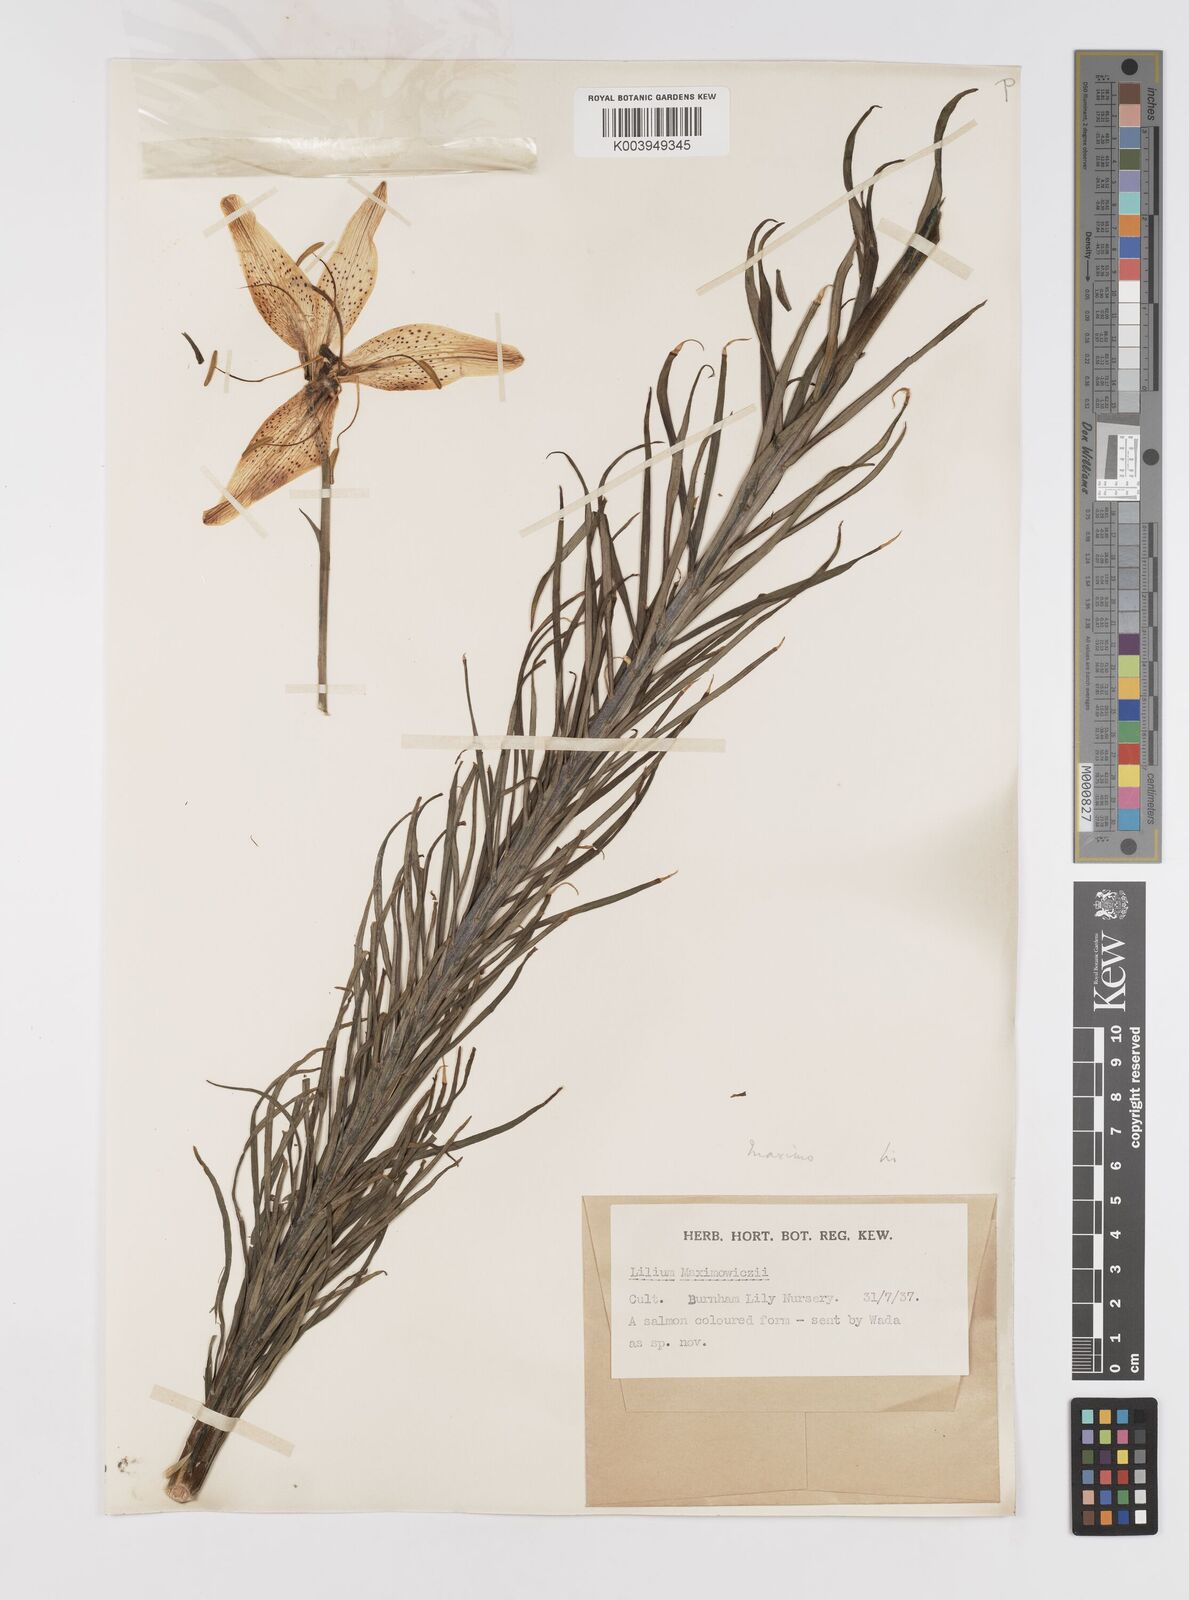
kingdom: Plantae
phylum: Tracheophyta
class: Liliopsida
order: Liliales
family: Liliaceae
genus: Lilium
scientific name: Lilium leichtlinii
